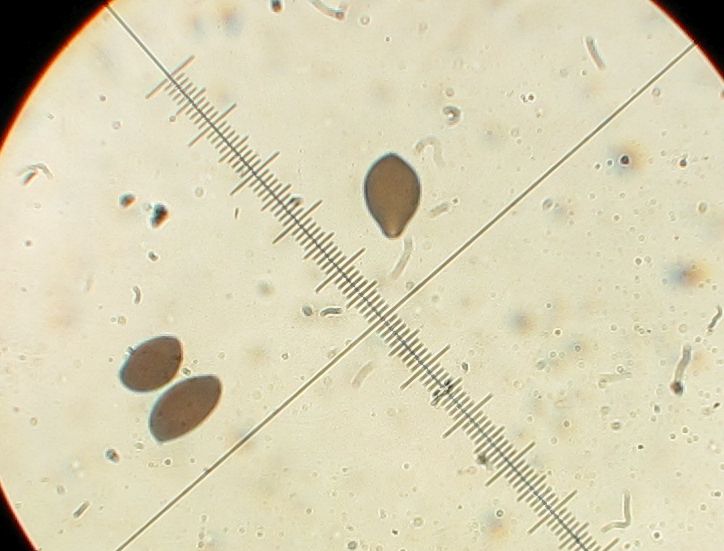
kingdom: Fungi
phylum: Basidiomycota
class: Agaricomycetes
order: Agaricales
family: Bolbitiaceae
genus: Panaeolus
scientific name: Panaeolus reticulatus
